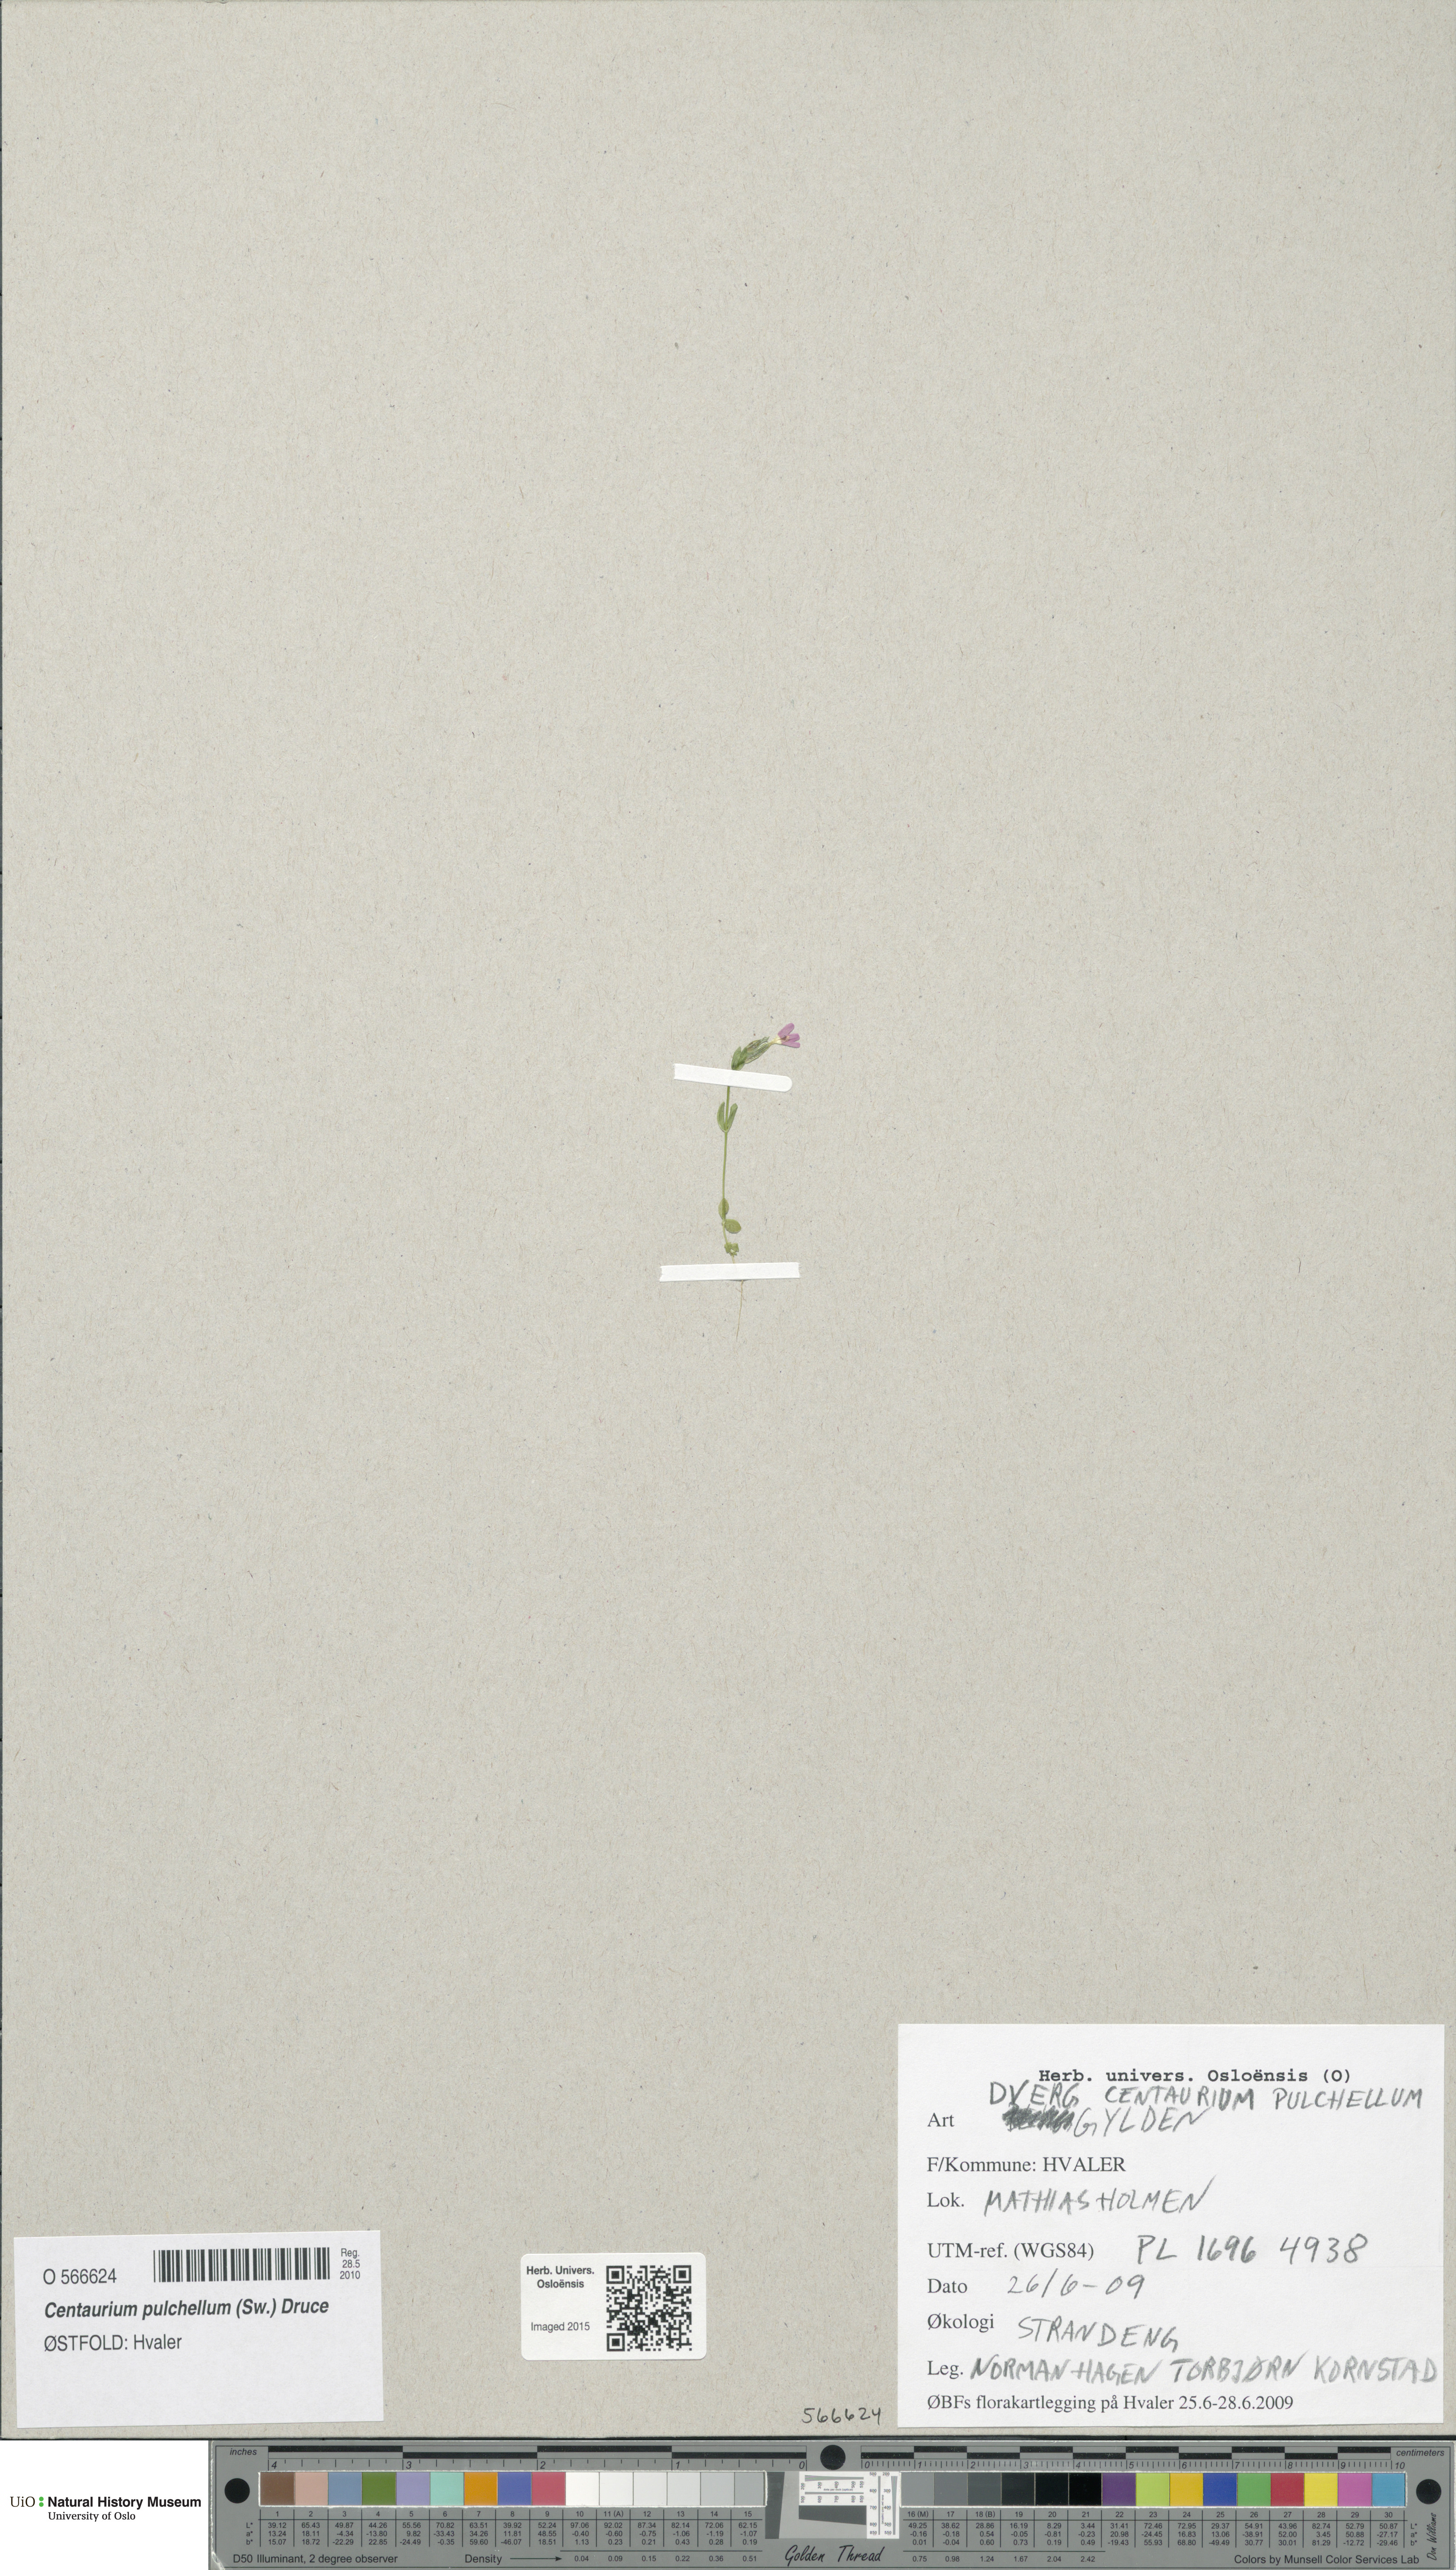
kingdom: Plantae
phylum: Tracheophyta
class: Magnoliopsida
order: Gentianales
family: Gentianaceae
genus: Centaurium
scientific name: Centaurium pulchellum
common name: Lesser centaury
